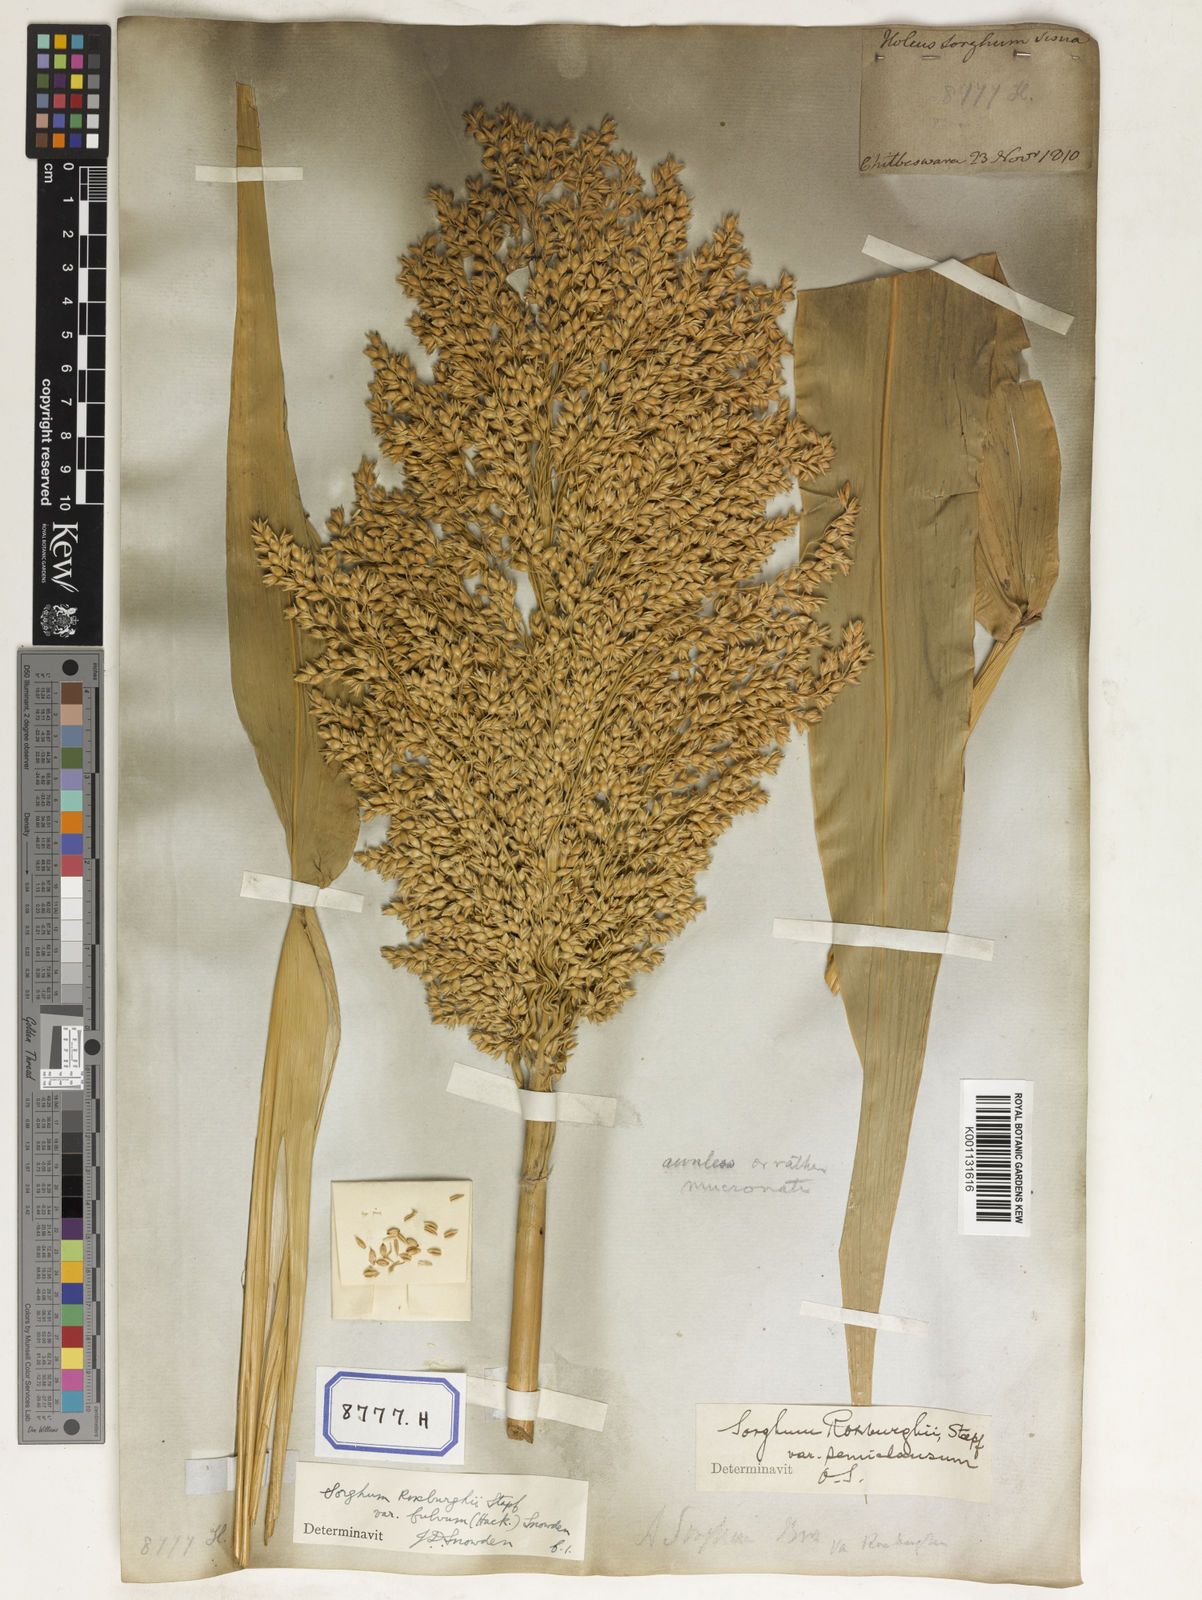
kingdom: Plantae
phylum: Tracheophyta
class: Liliopsida
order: Poales
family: Poaceae
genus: Sorghum
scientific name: Sorghum bicolor
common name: Sorghum
